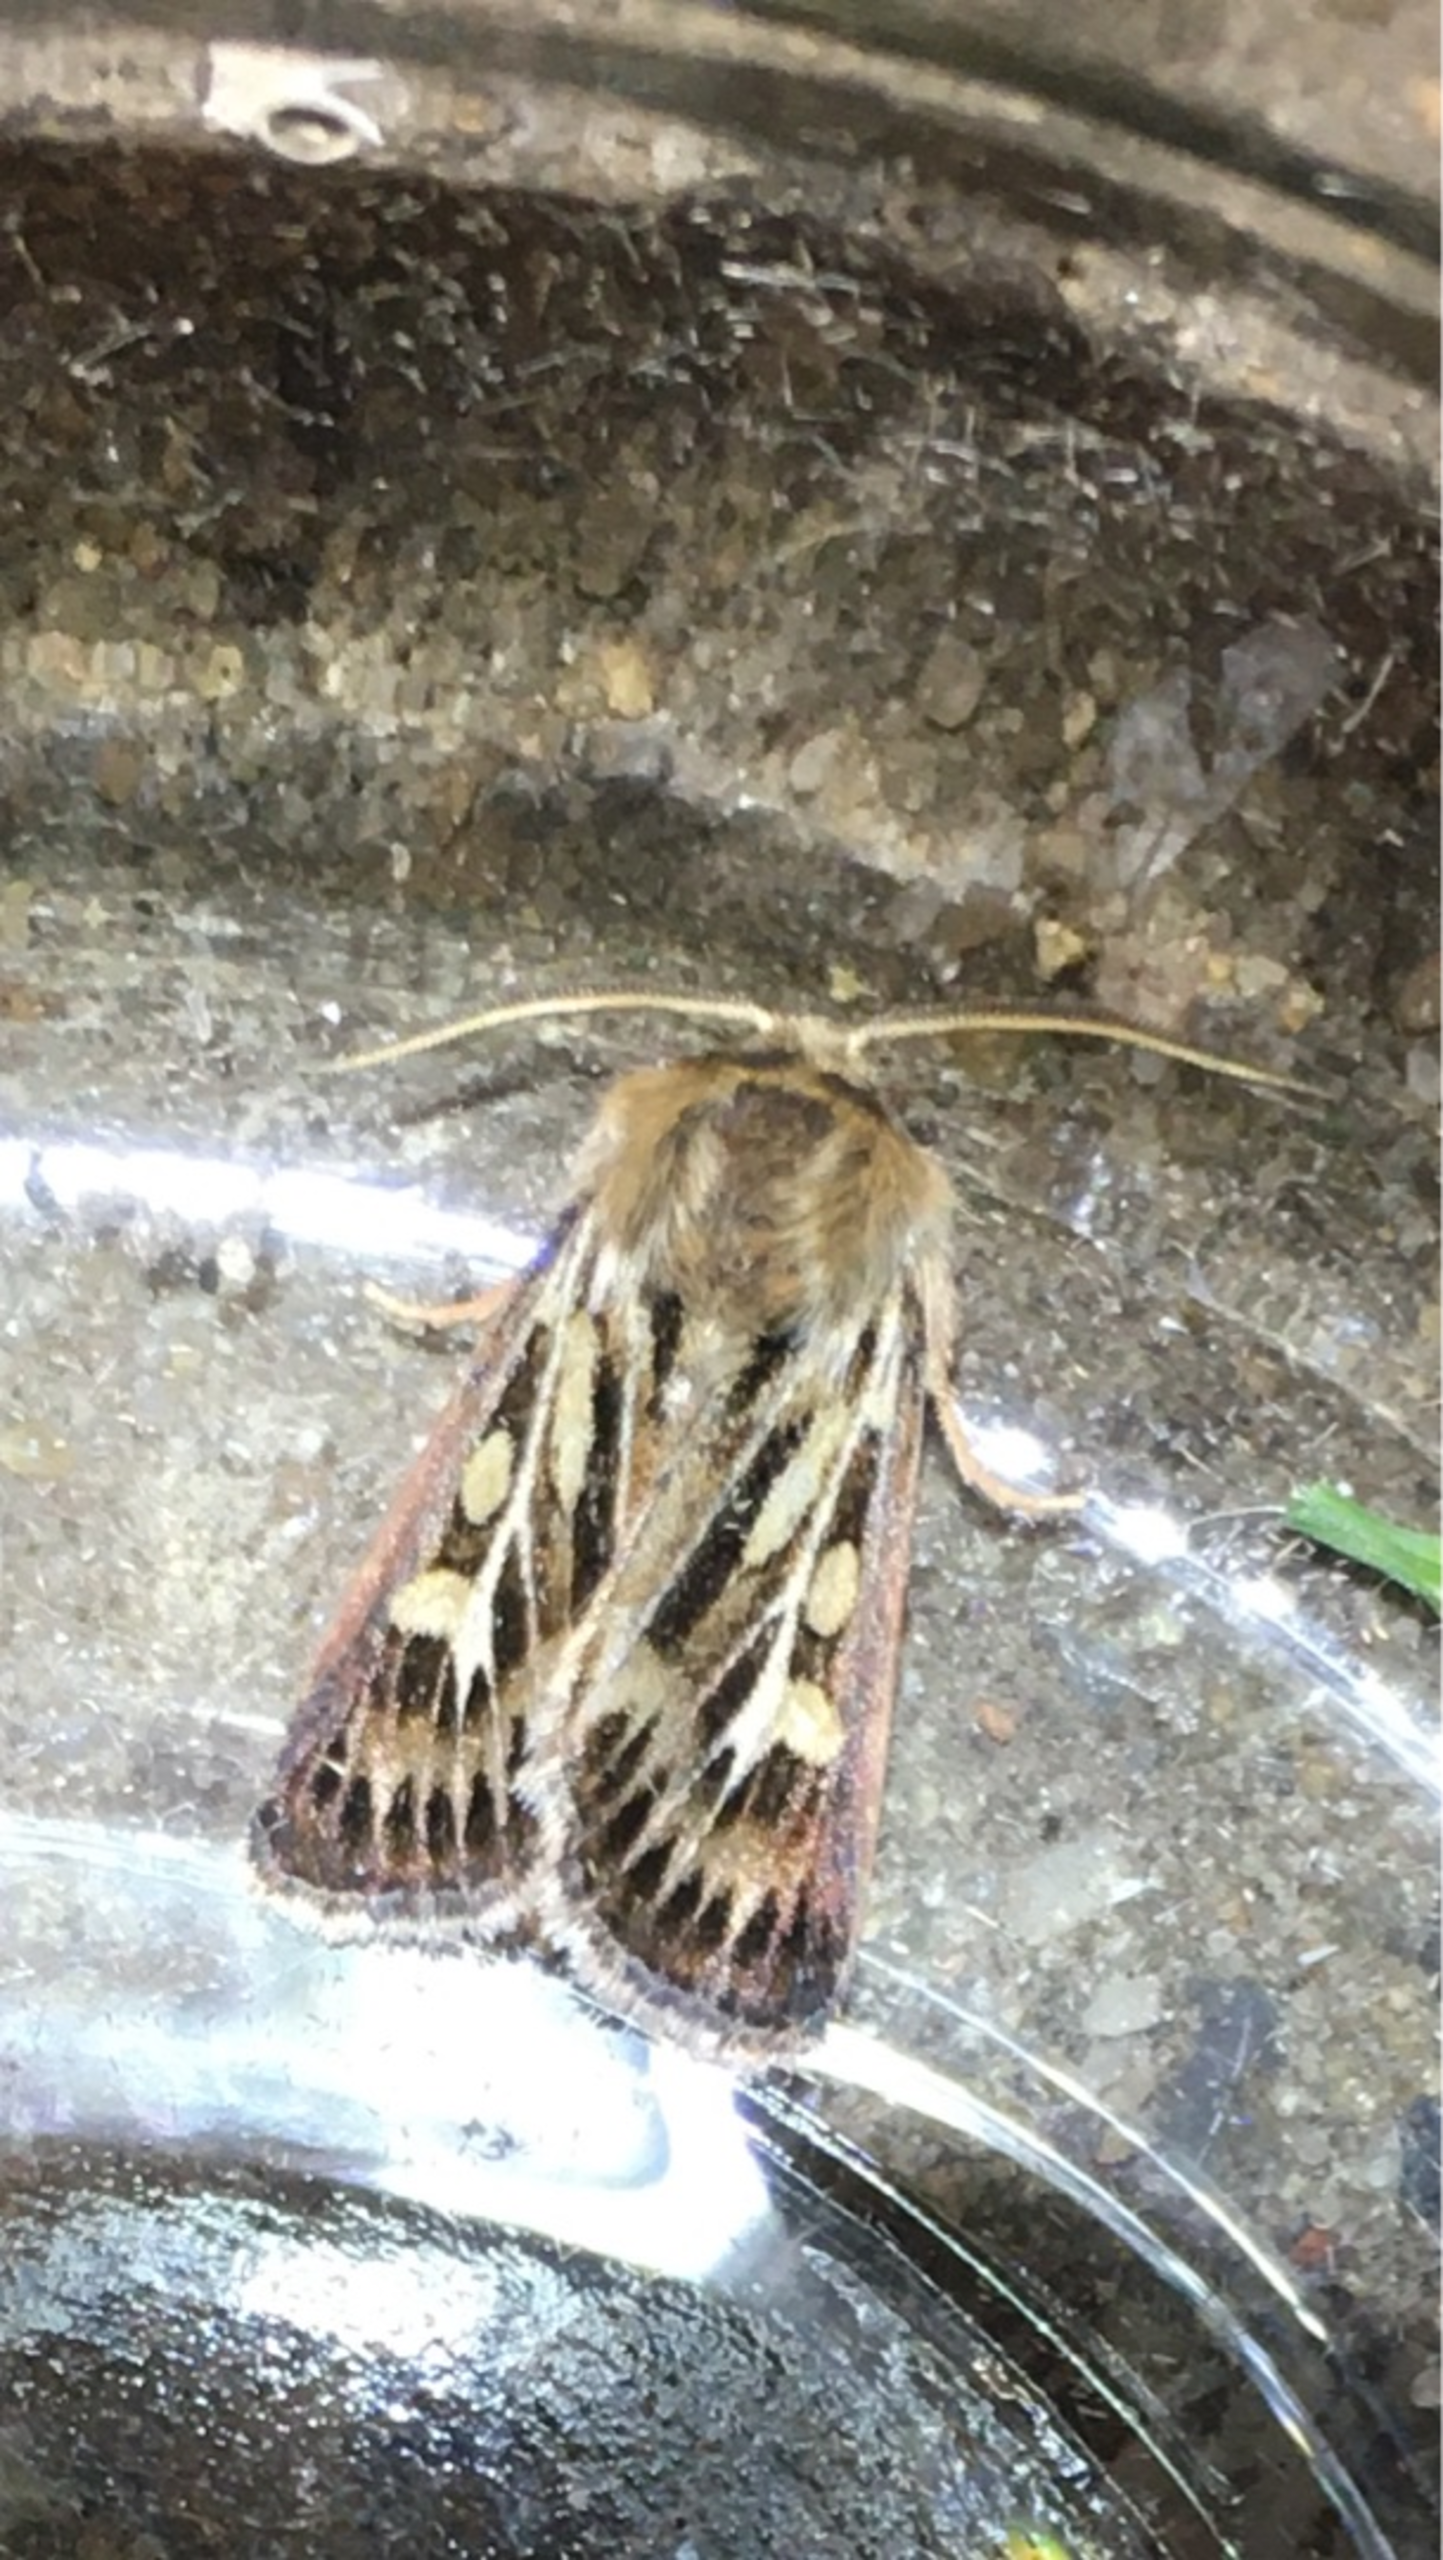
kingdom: Animalia
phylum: Arthropoda
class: Insecta
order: Lepidoptera
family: Noctuidae
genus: Cerapteryx
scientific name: Cerapteryx graminis
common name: Mosebunkeugle
